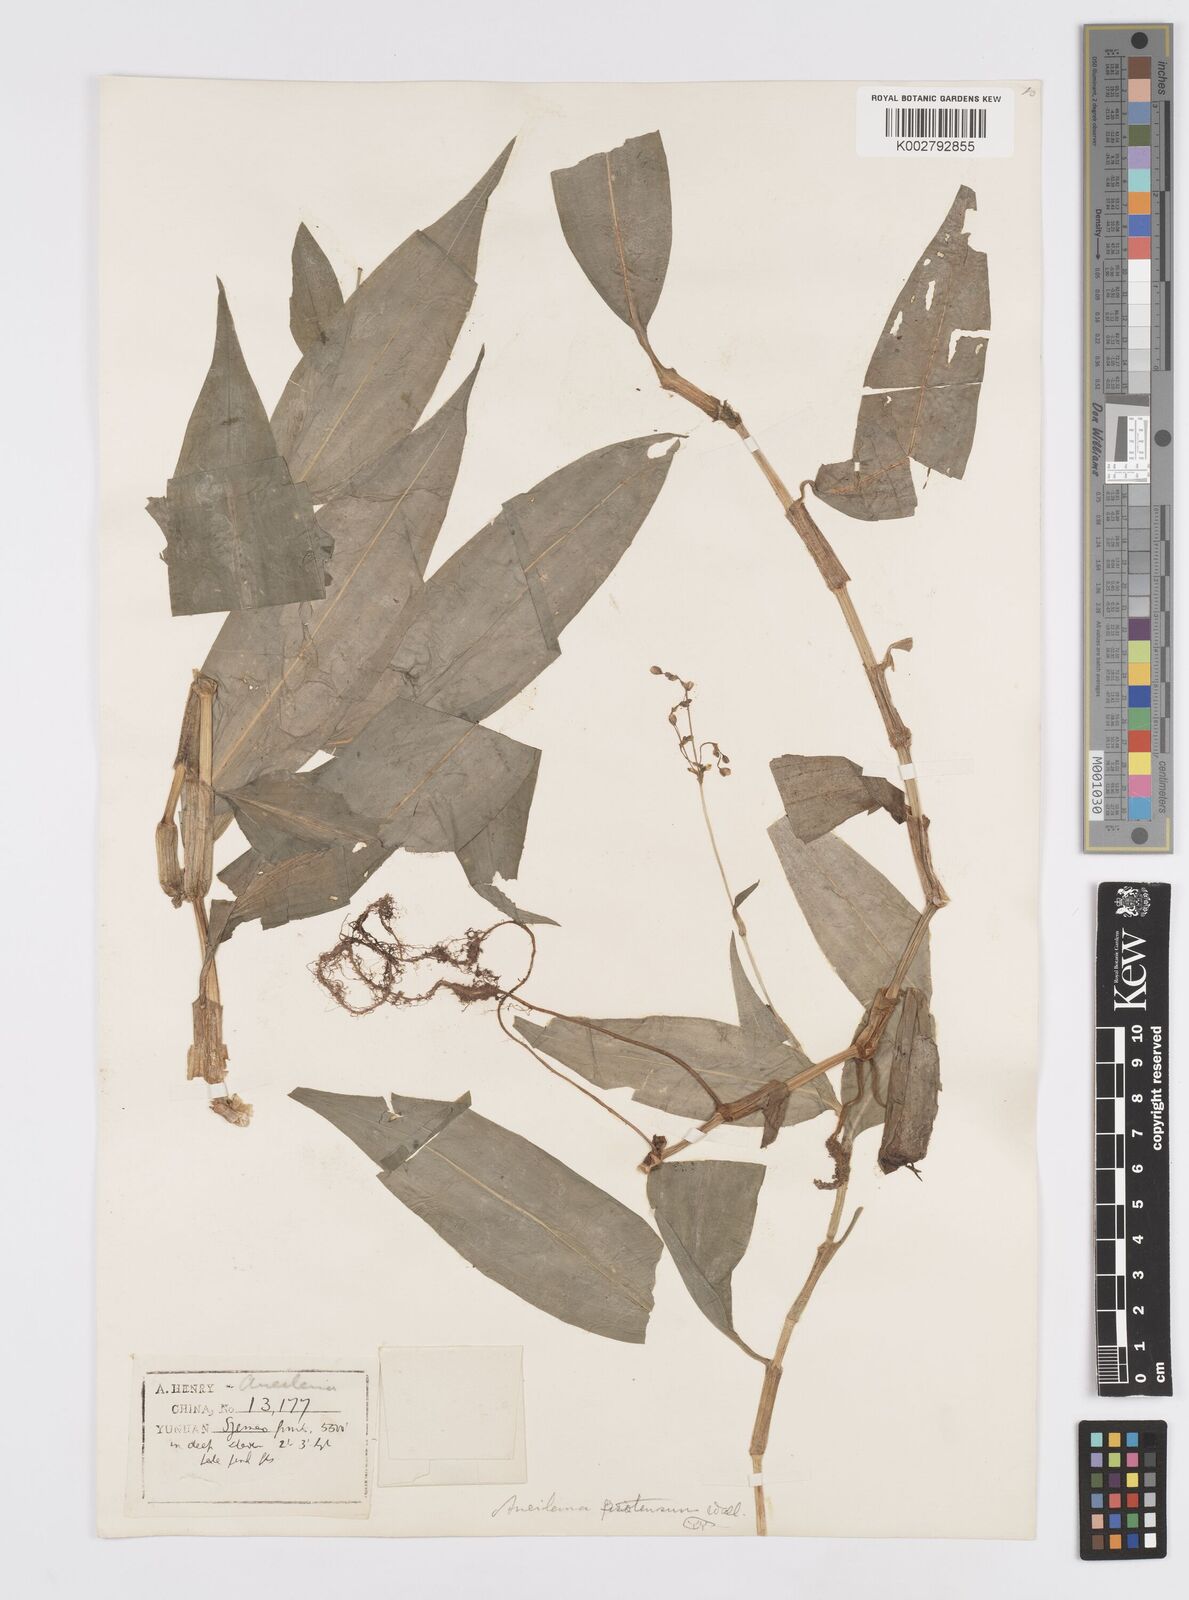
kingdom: Plantae
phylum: Tracheophyta
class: Liliopsida
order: Commelinales
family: Commelinaceae
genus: Murdannia
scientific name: Murdannia
